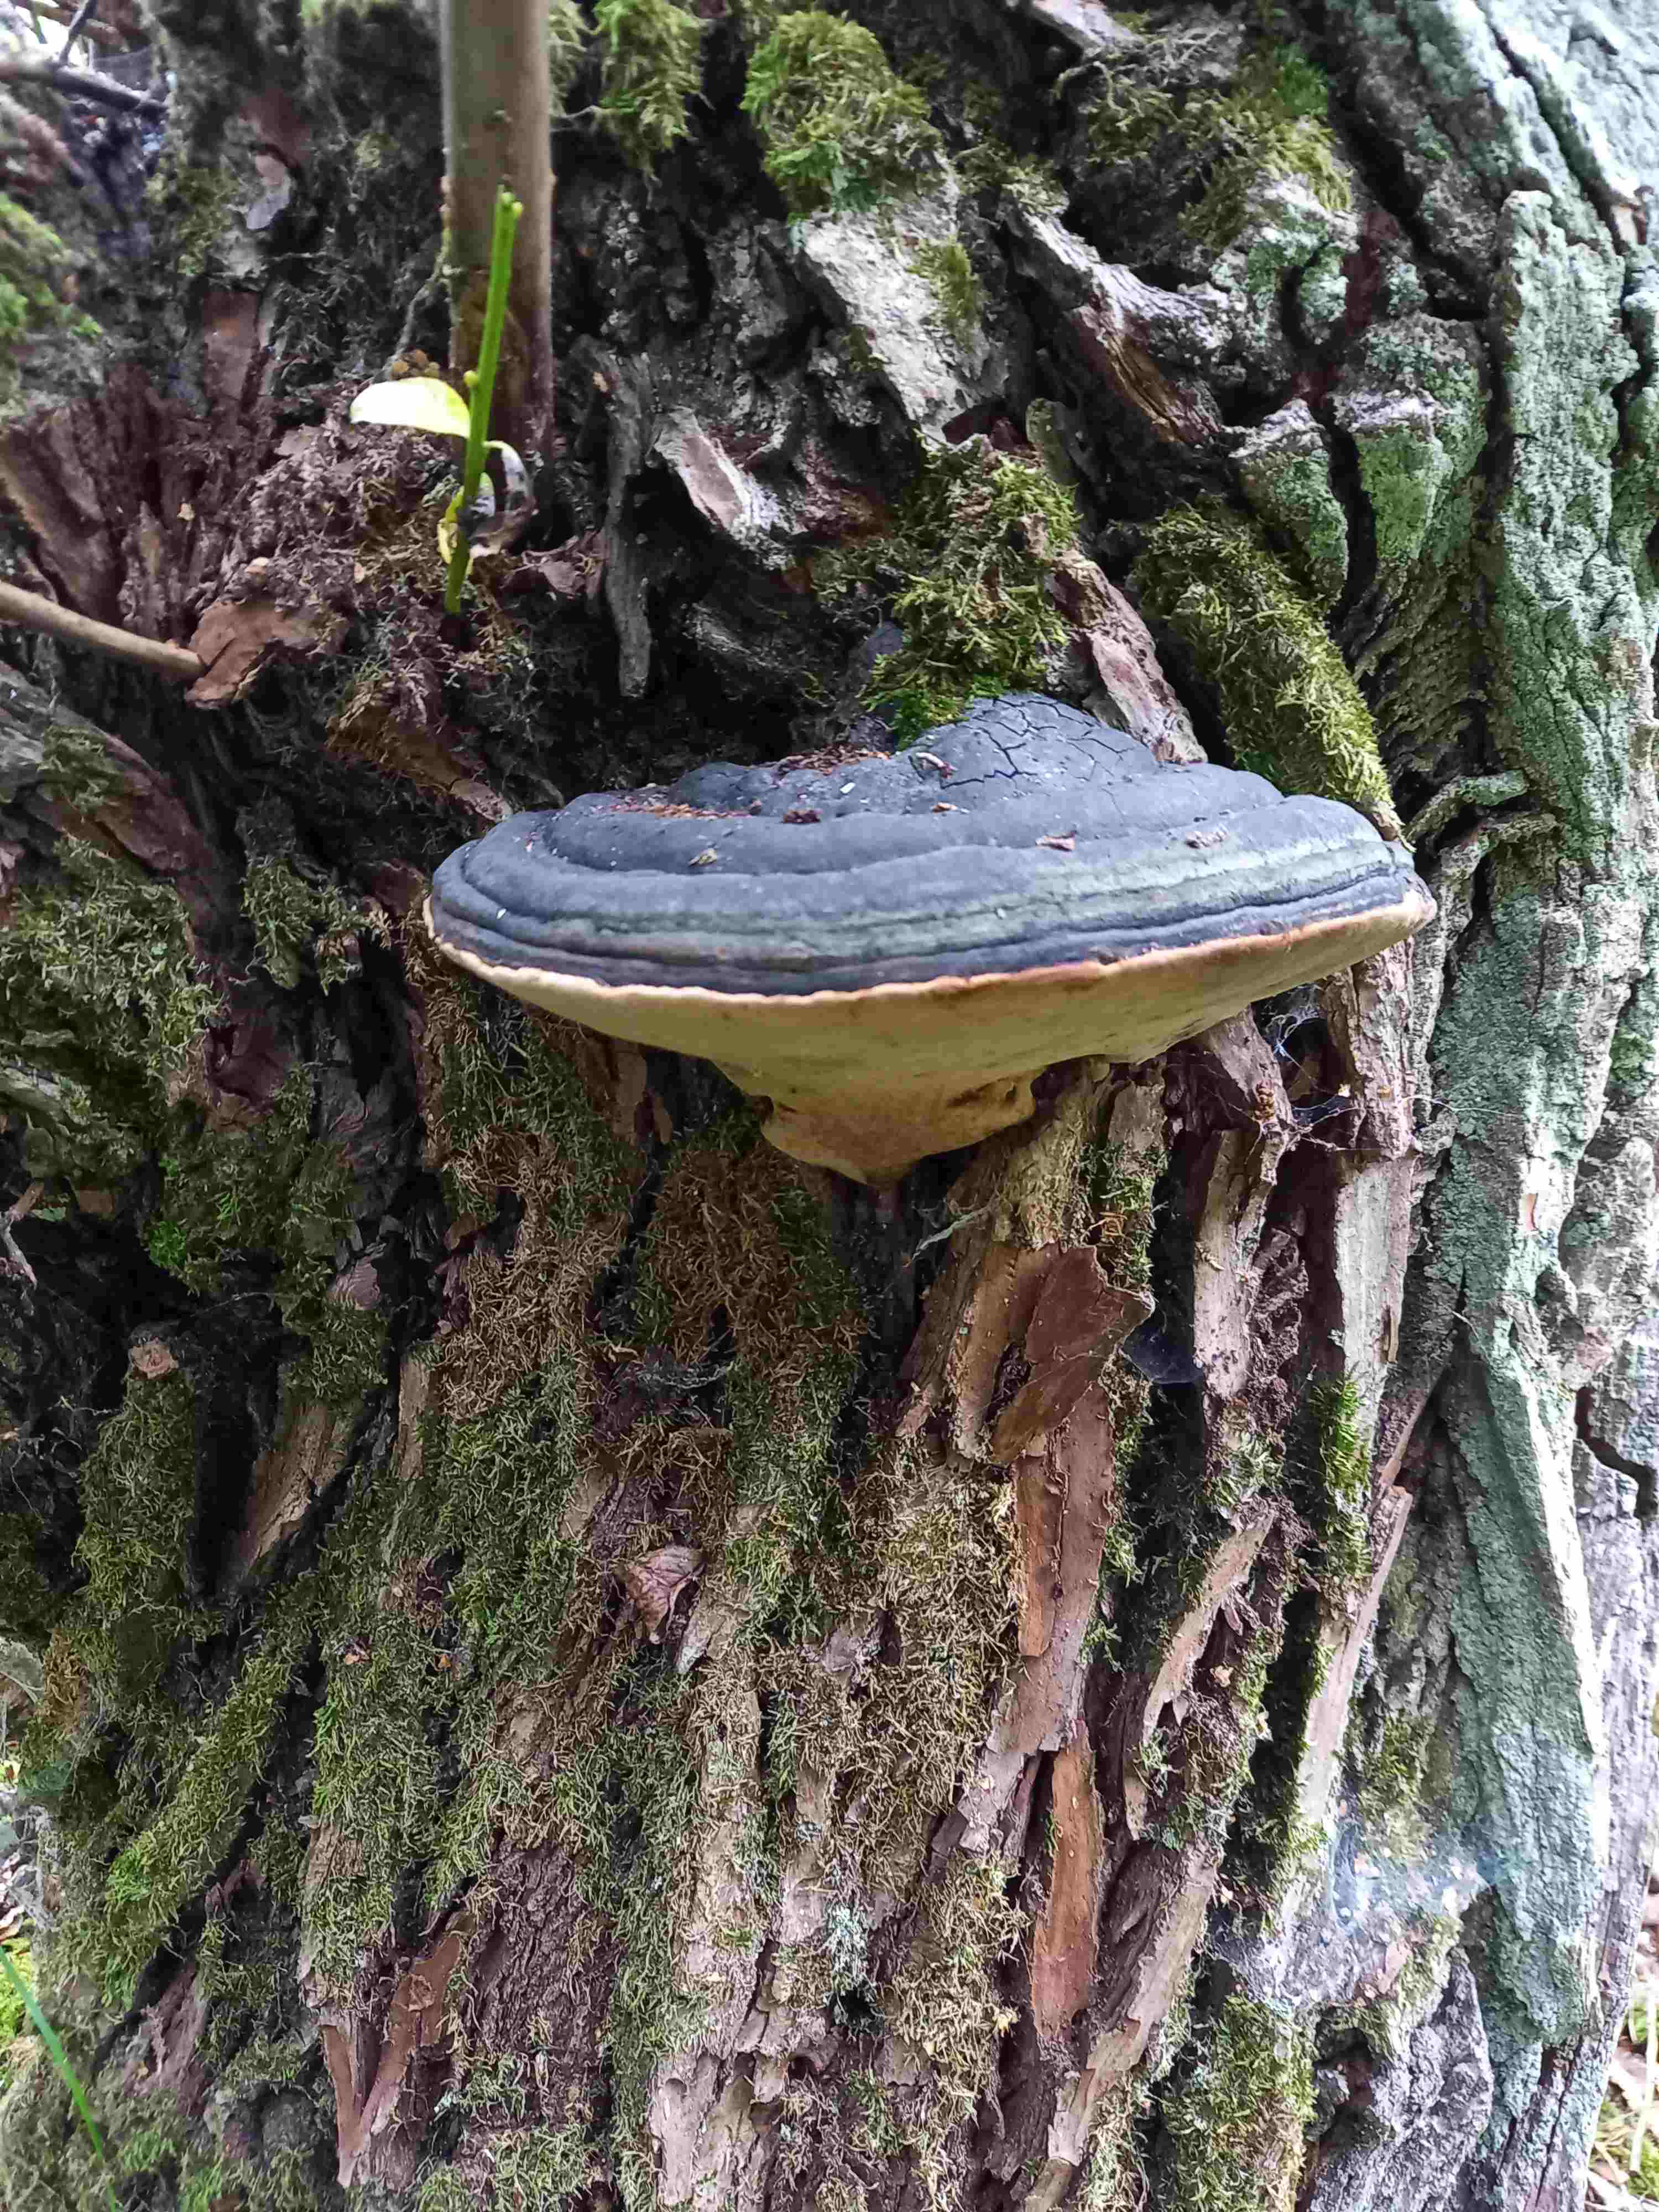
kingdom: Fungi
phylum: Basidiomycota
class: Agaricomycetes
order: Hymenochaetales
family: Hymenochaetaceae
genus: Phellinus
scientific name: Phellinus igniarius
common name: almindelig ildporesvamp
